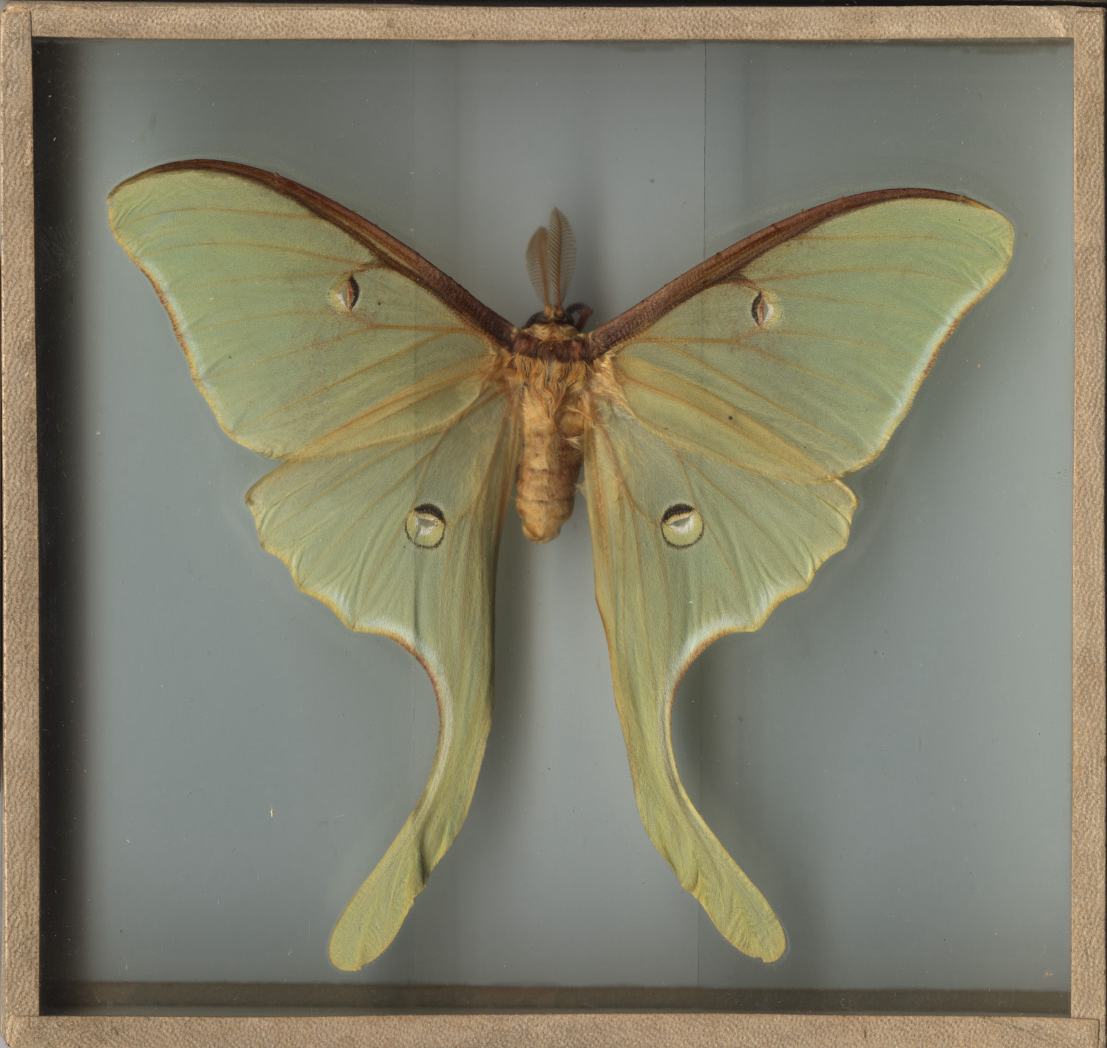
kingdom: Animalia
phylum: Arthropoda
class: Insecta
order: Lepidoptera
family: Saturniidae
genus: Actias
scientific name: Actias luna
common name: Luna Moth
